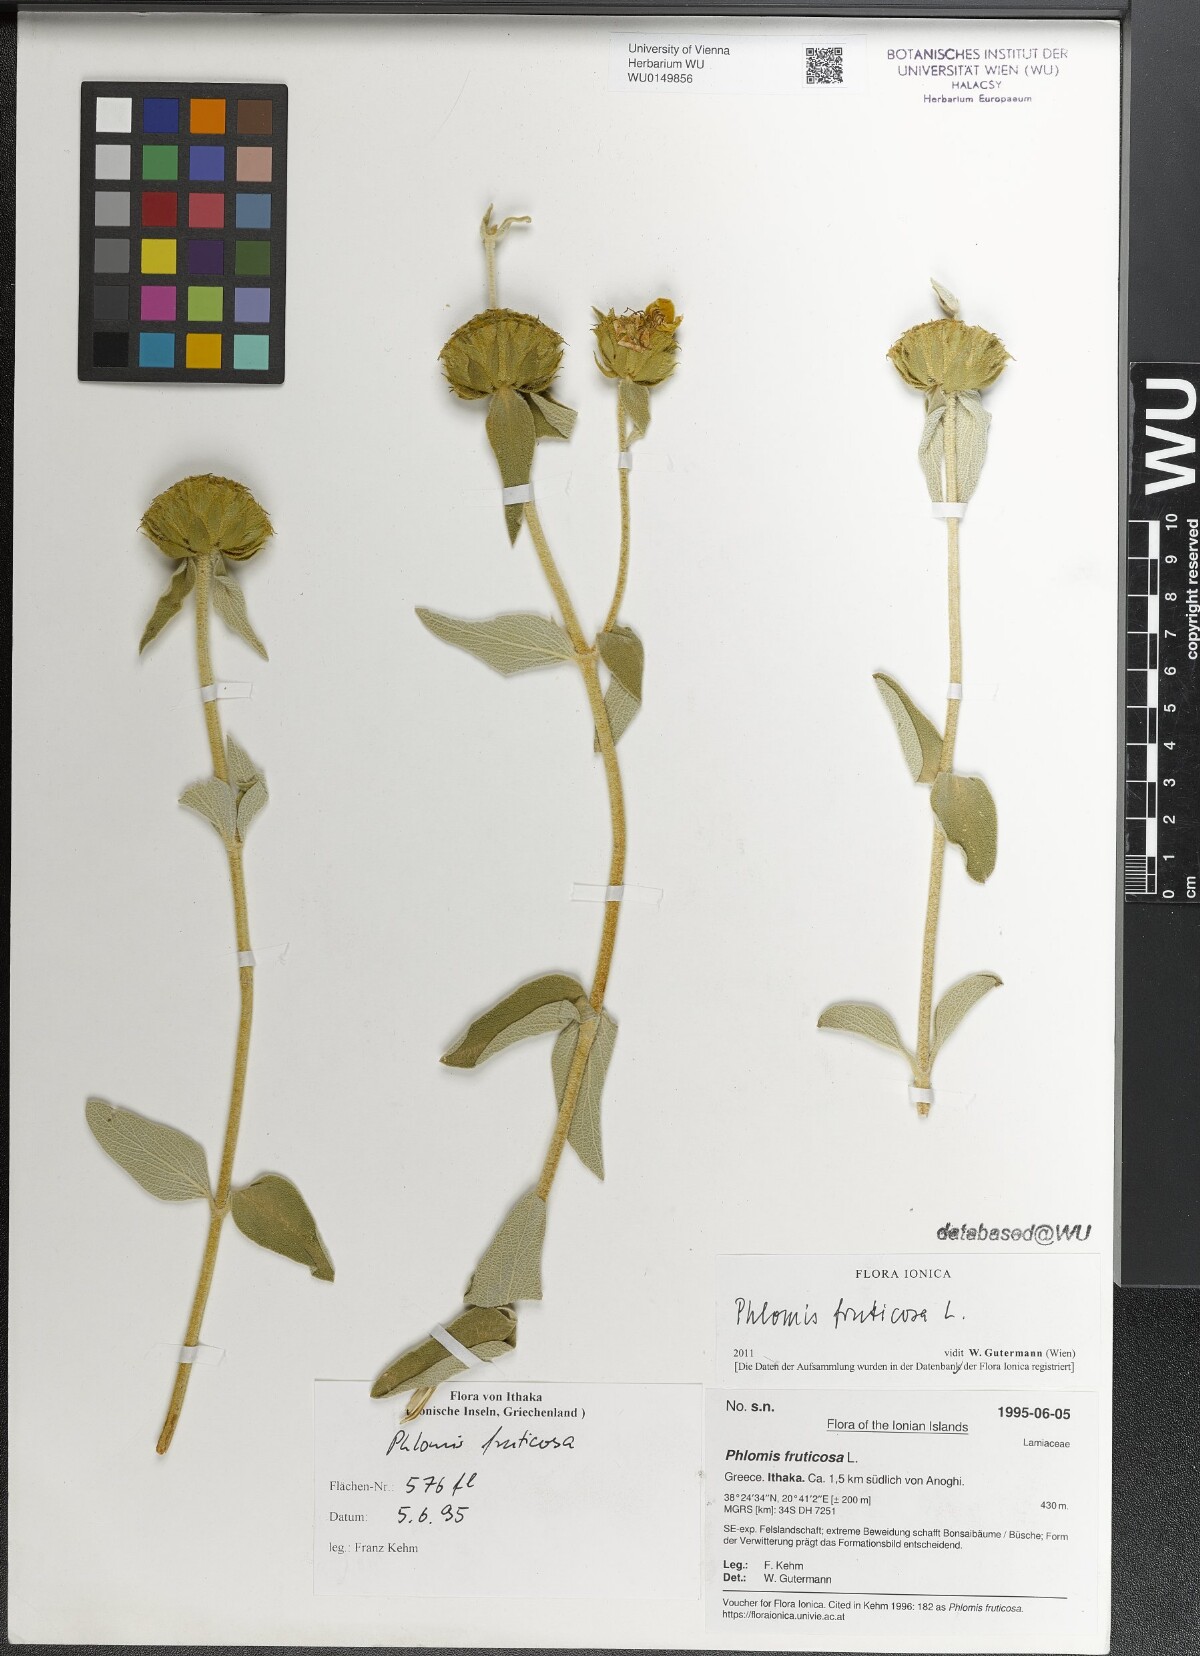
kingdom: Plantae
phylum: Tracheophyta
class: Magnoliopsida
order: Lamiales
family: Lamiaceae
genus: Phlomis
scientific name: Phlomis fruticosa
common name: Jerusalem sage
